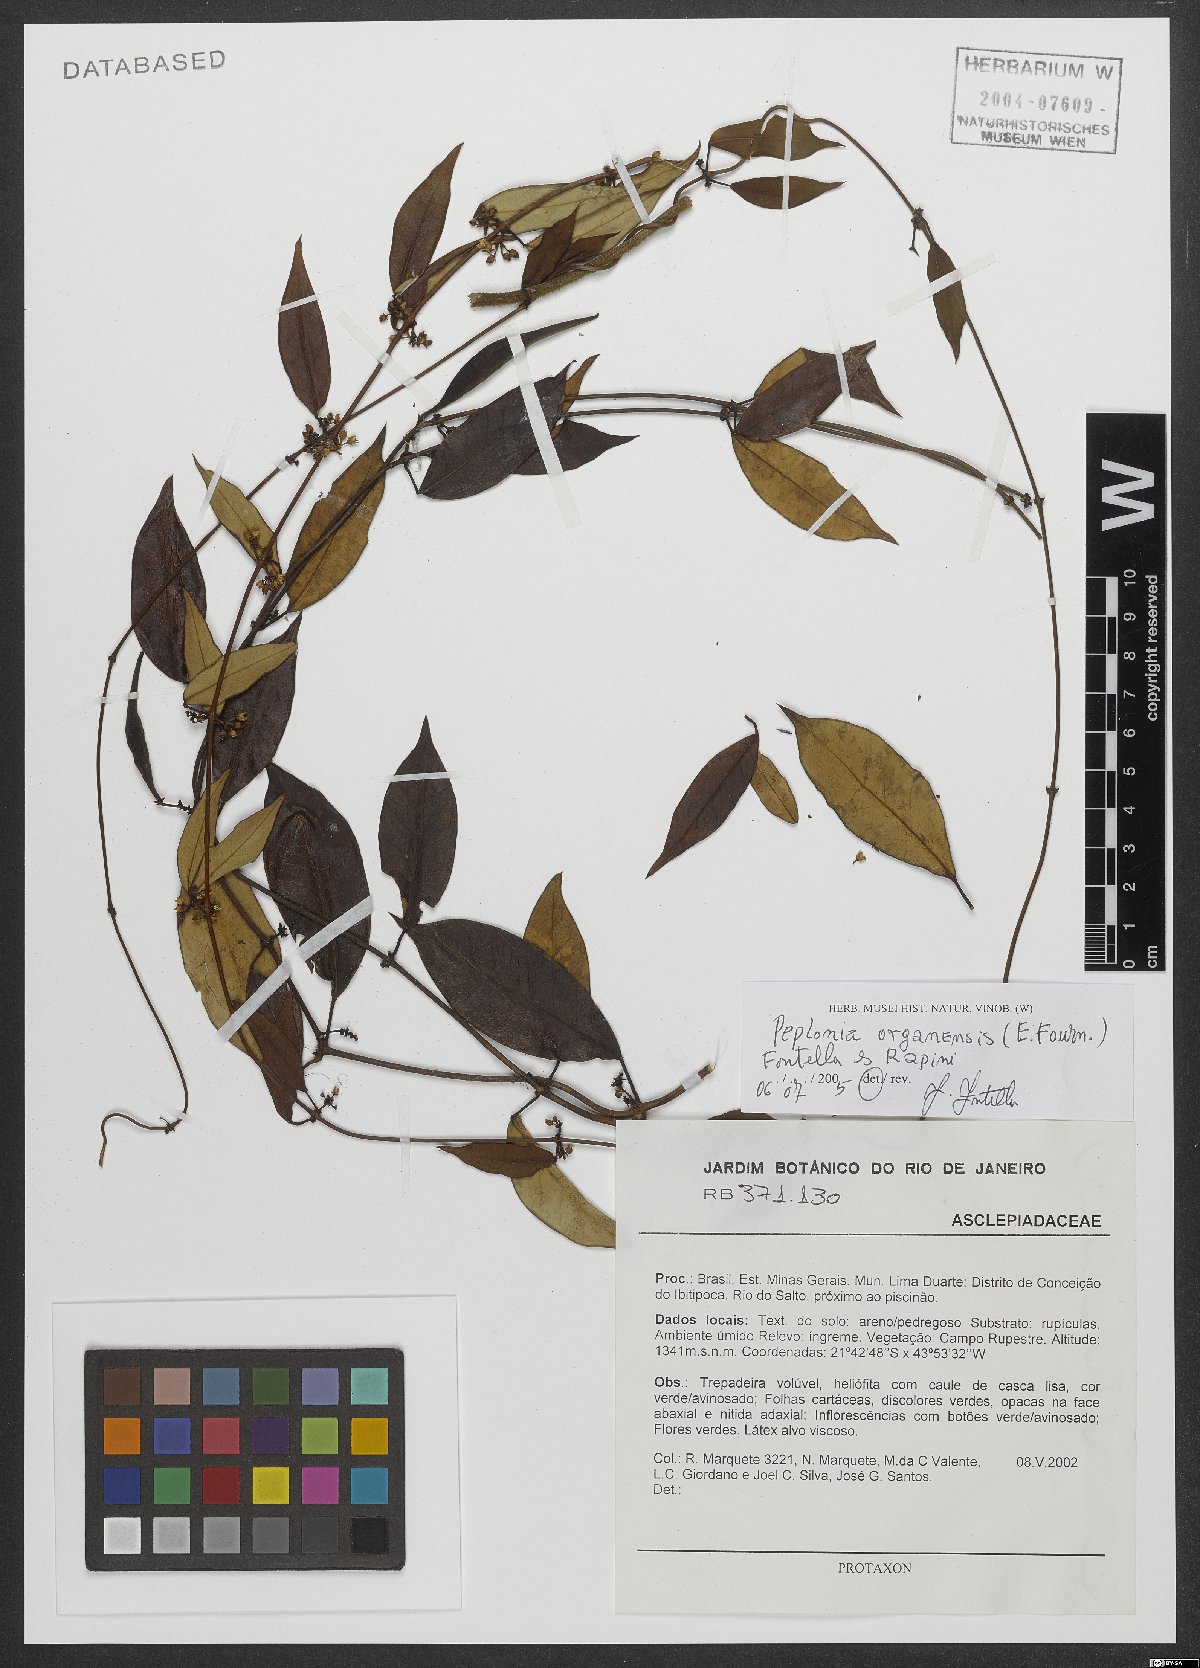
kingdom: Plantae
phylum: Tracheophyta
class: Magnoliopsida
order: Gentianales
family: Apocynaceae
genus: Peplonia
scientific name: Peplonia organensis
